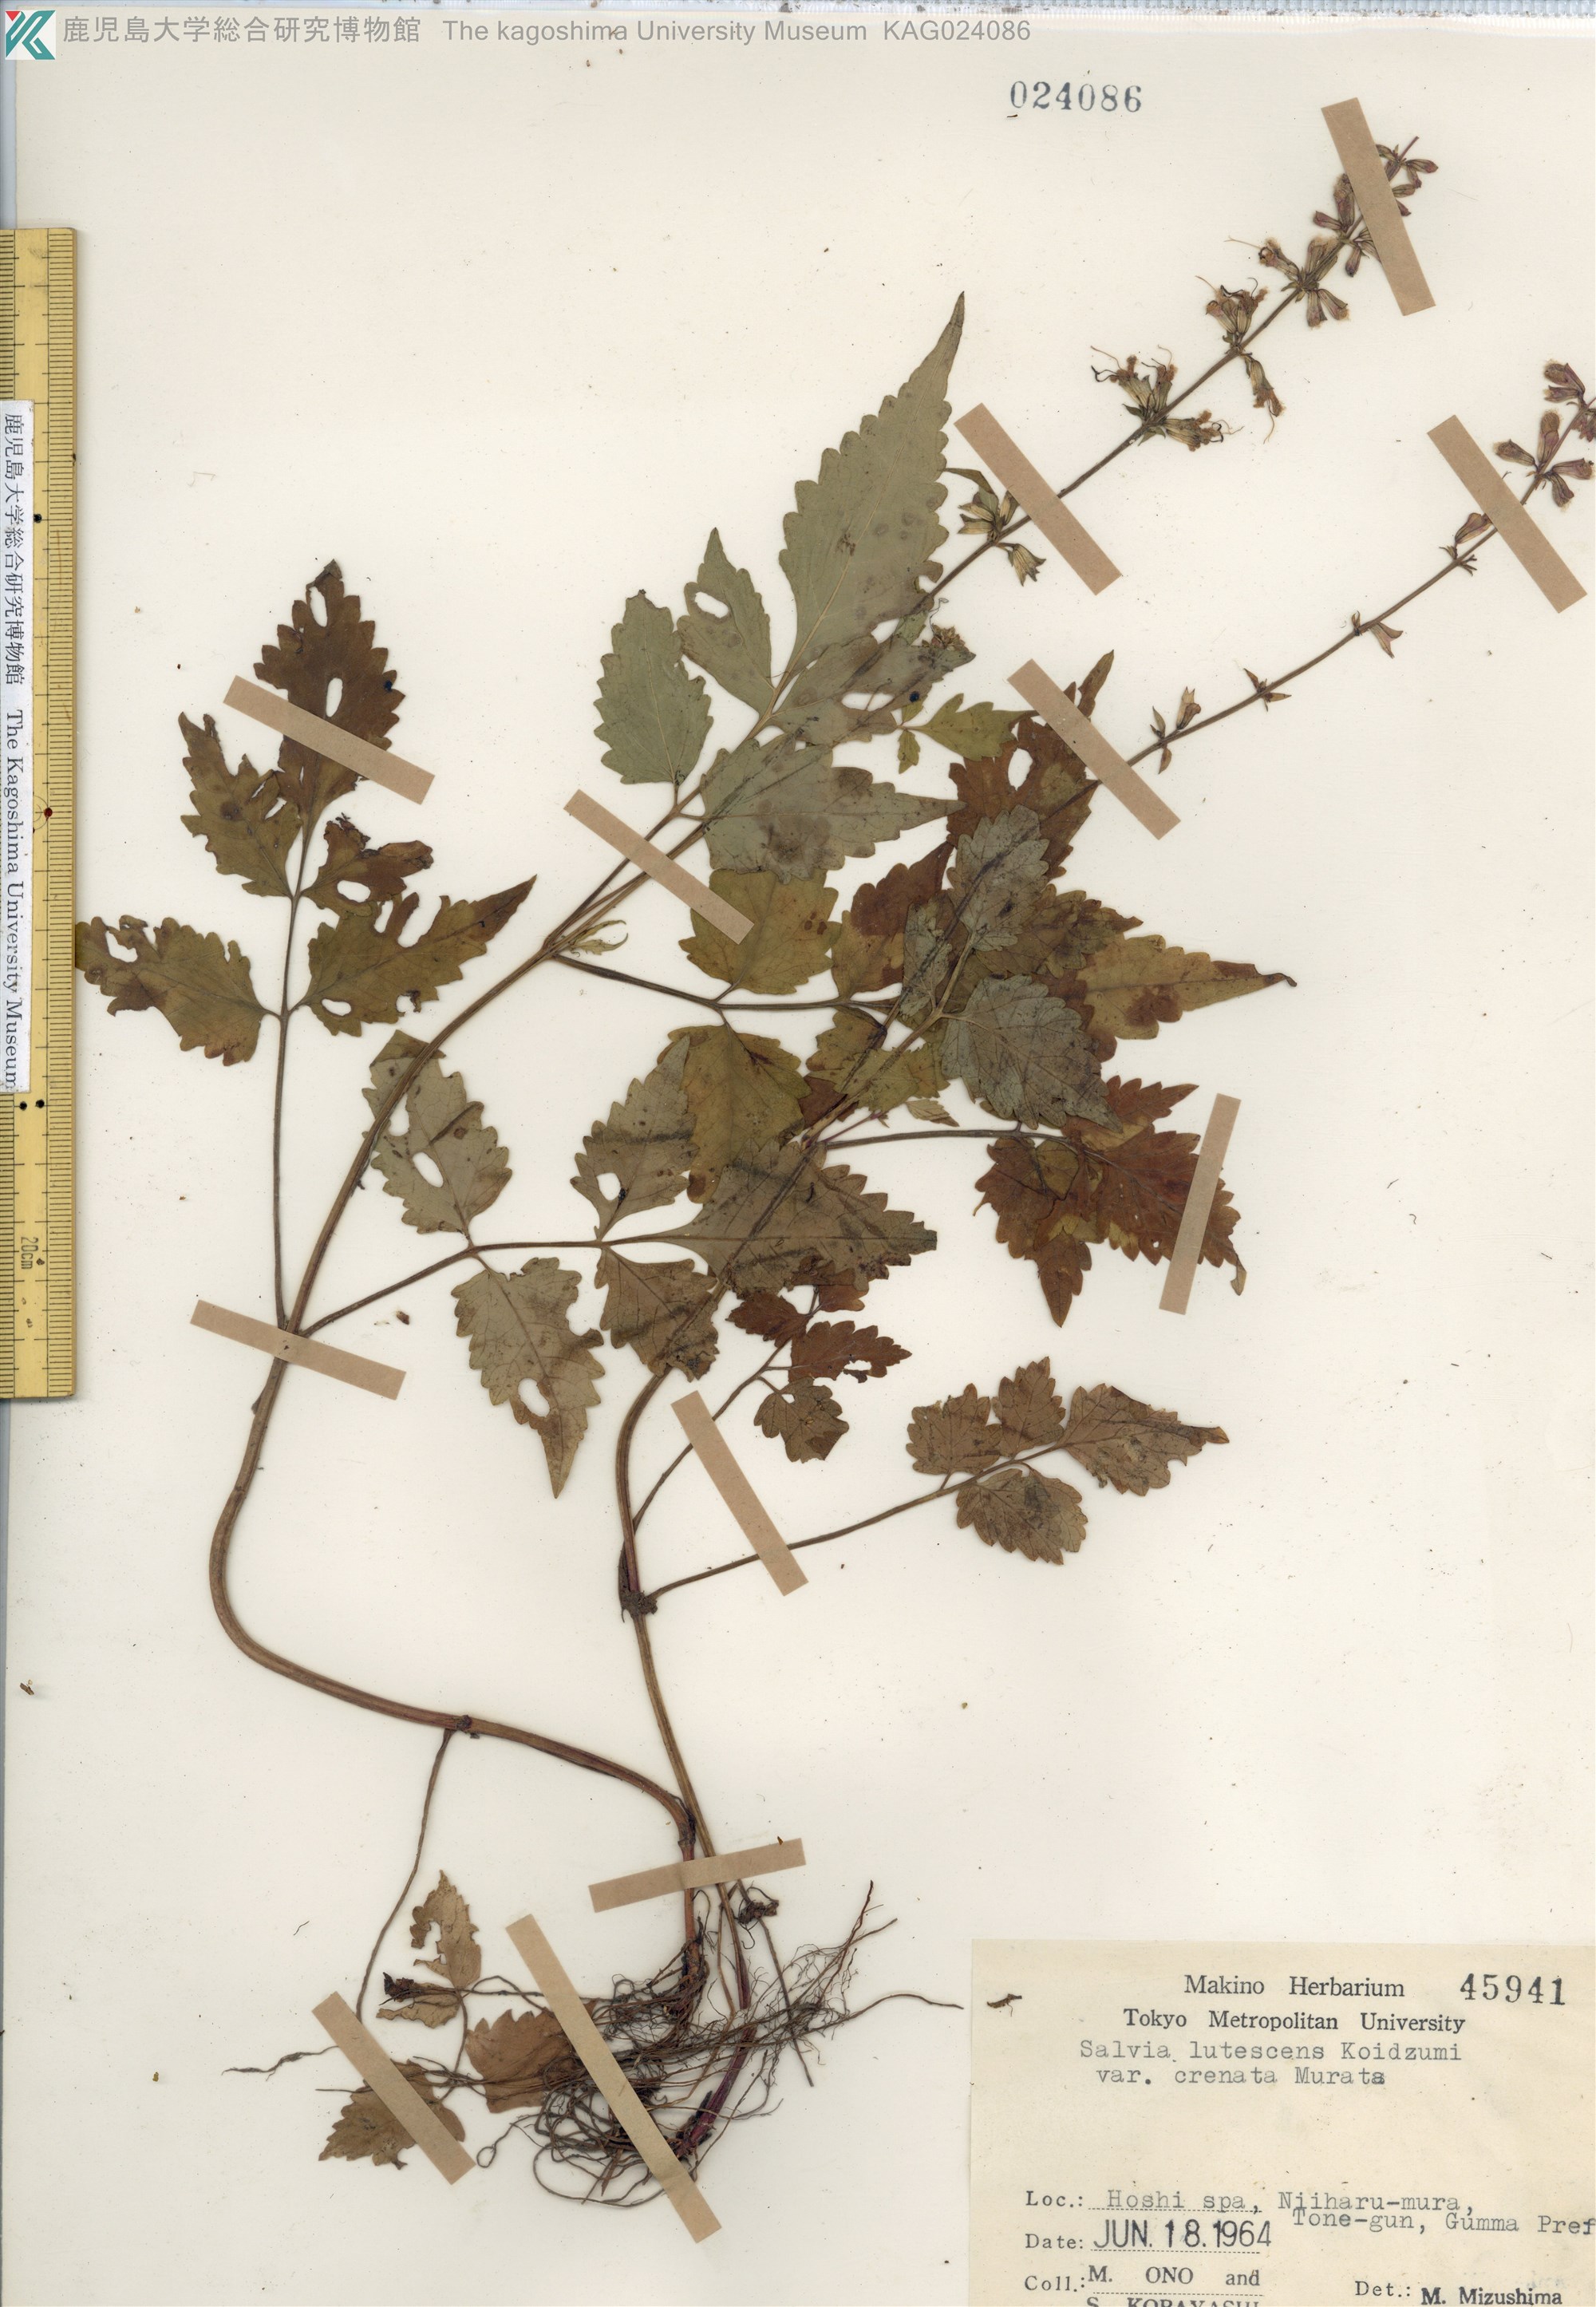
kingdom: Plantae
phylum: Tracheophyta
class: Magnoliopsida
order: Lamiales
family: Lamiaceae
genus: Salvia
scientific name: Salvia lutescens
